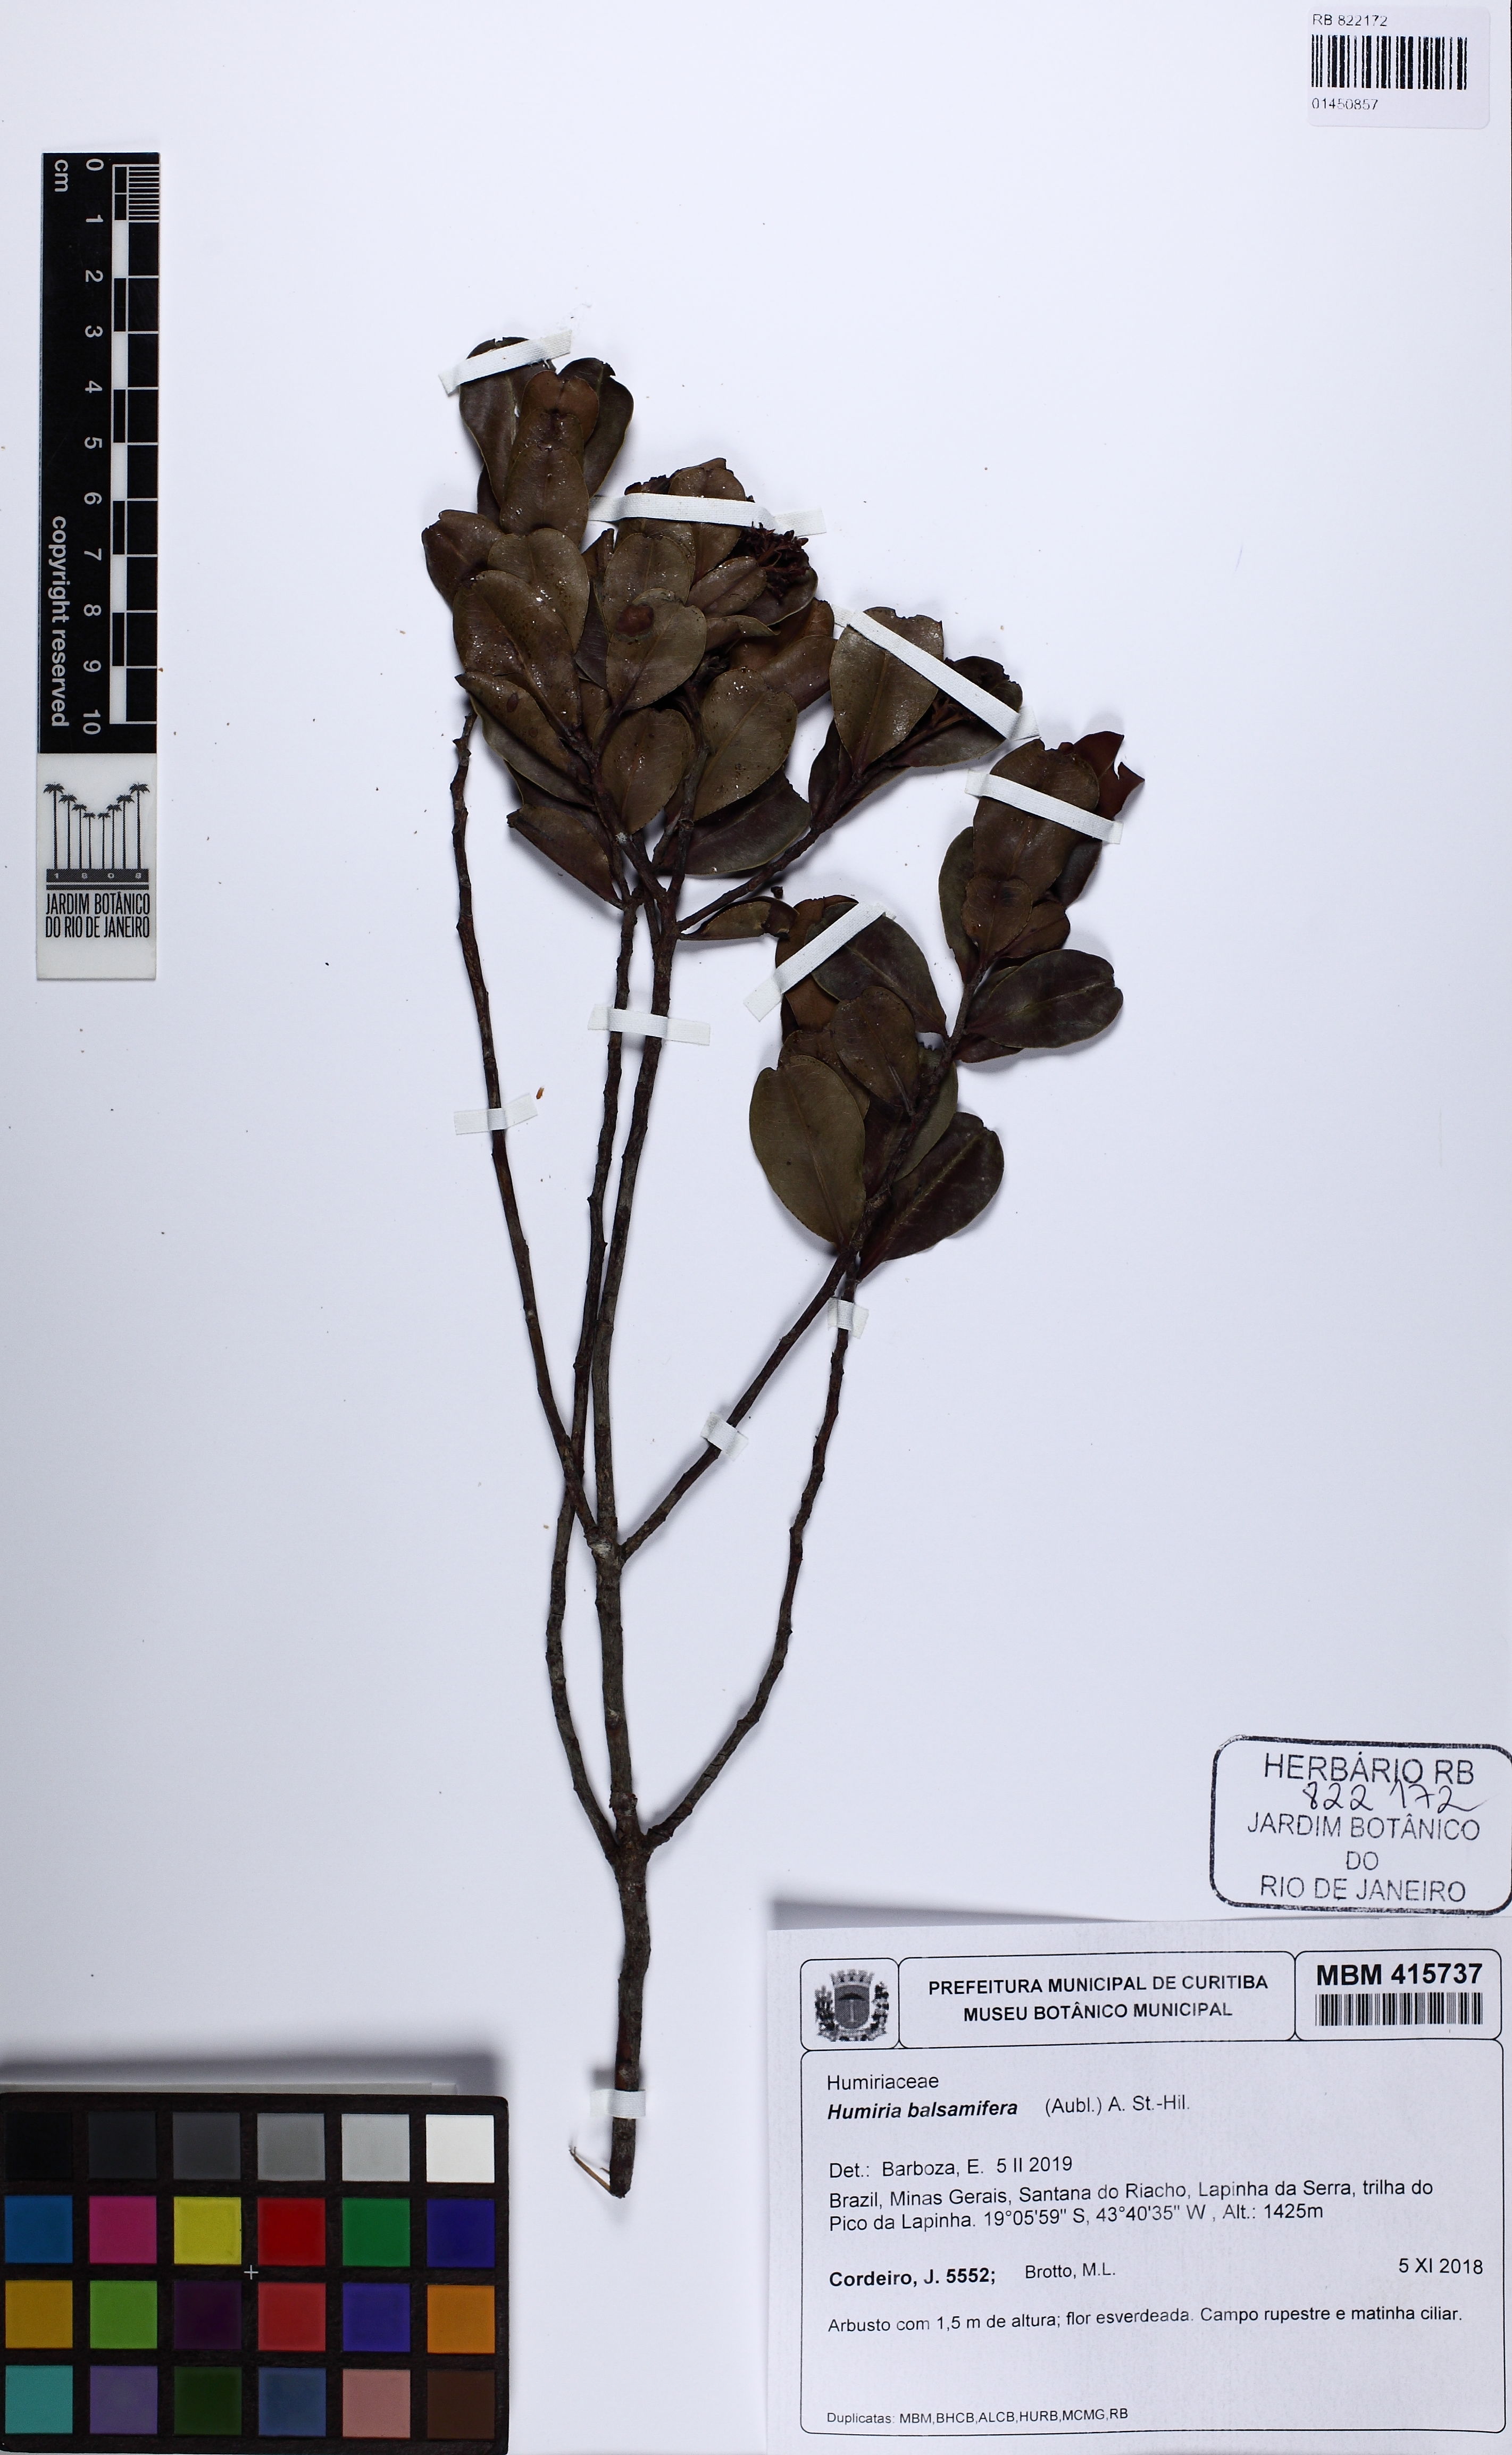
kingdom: Plantae
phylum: Tracheophyta
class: Magnoliopsida
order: Malpighiales
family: Humiriaceae
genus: Humiria
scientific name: Humiria balsamifera
